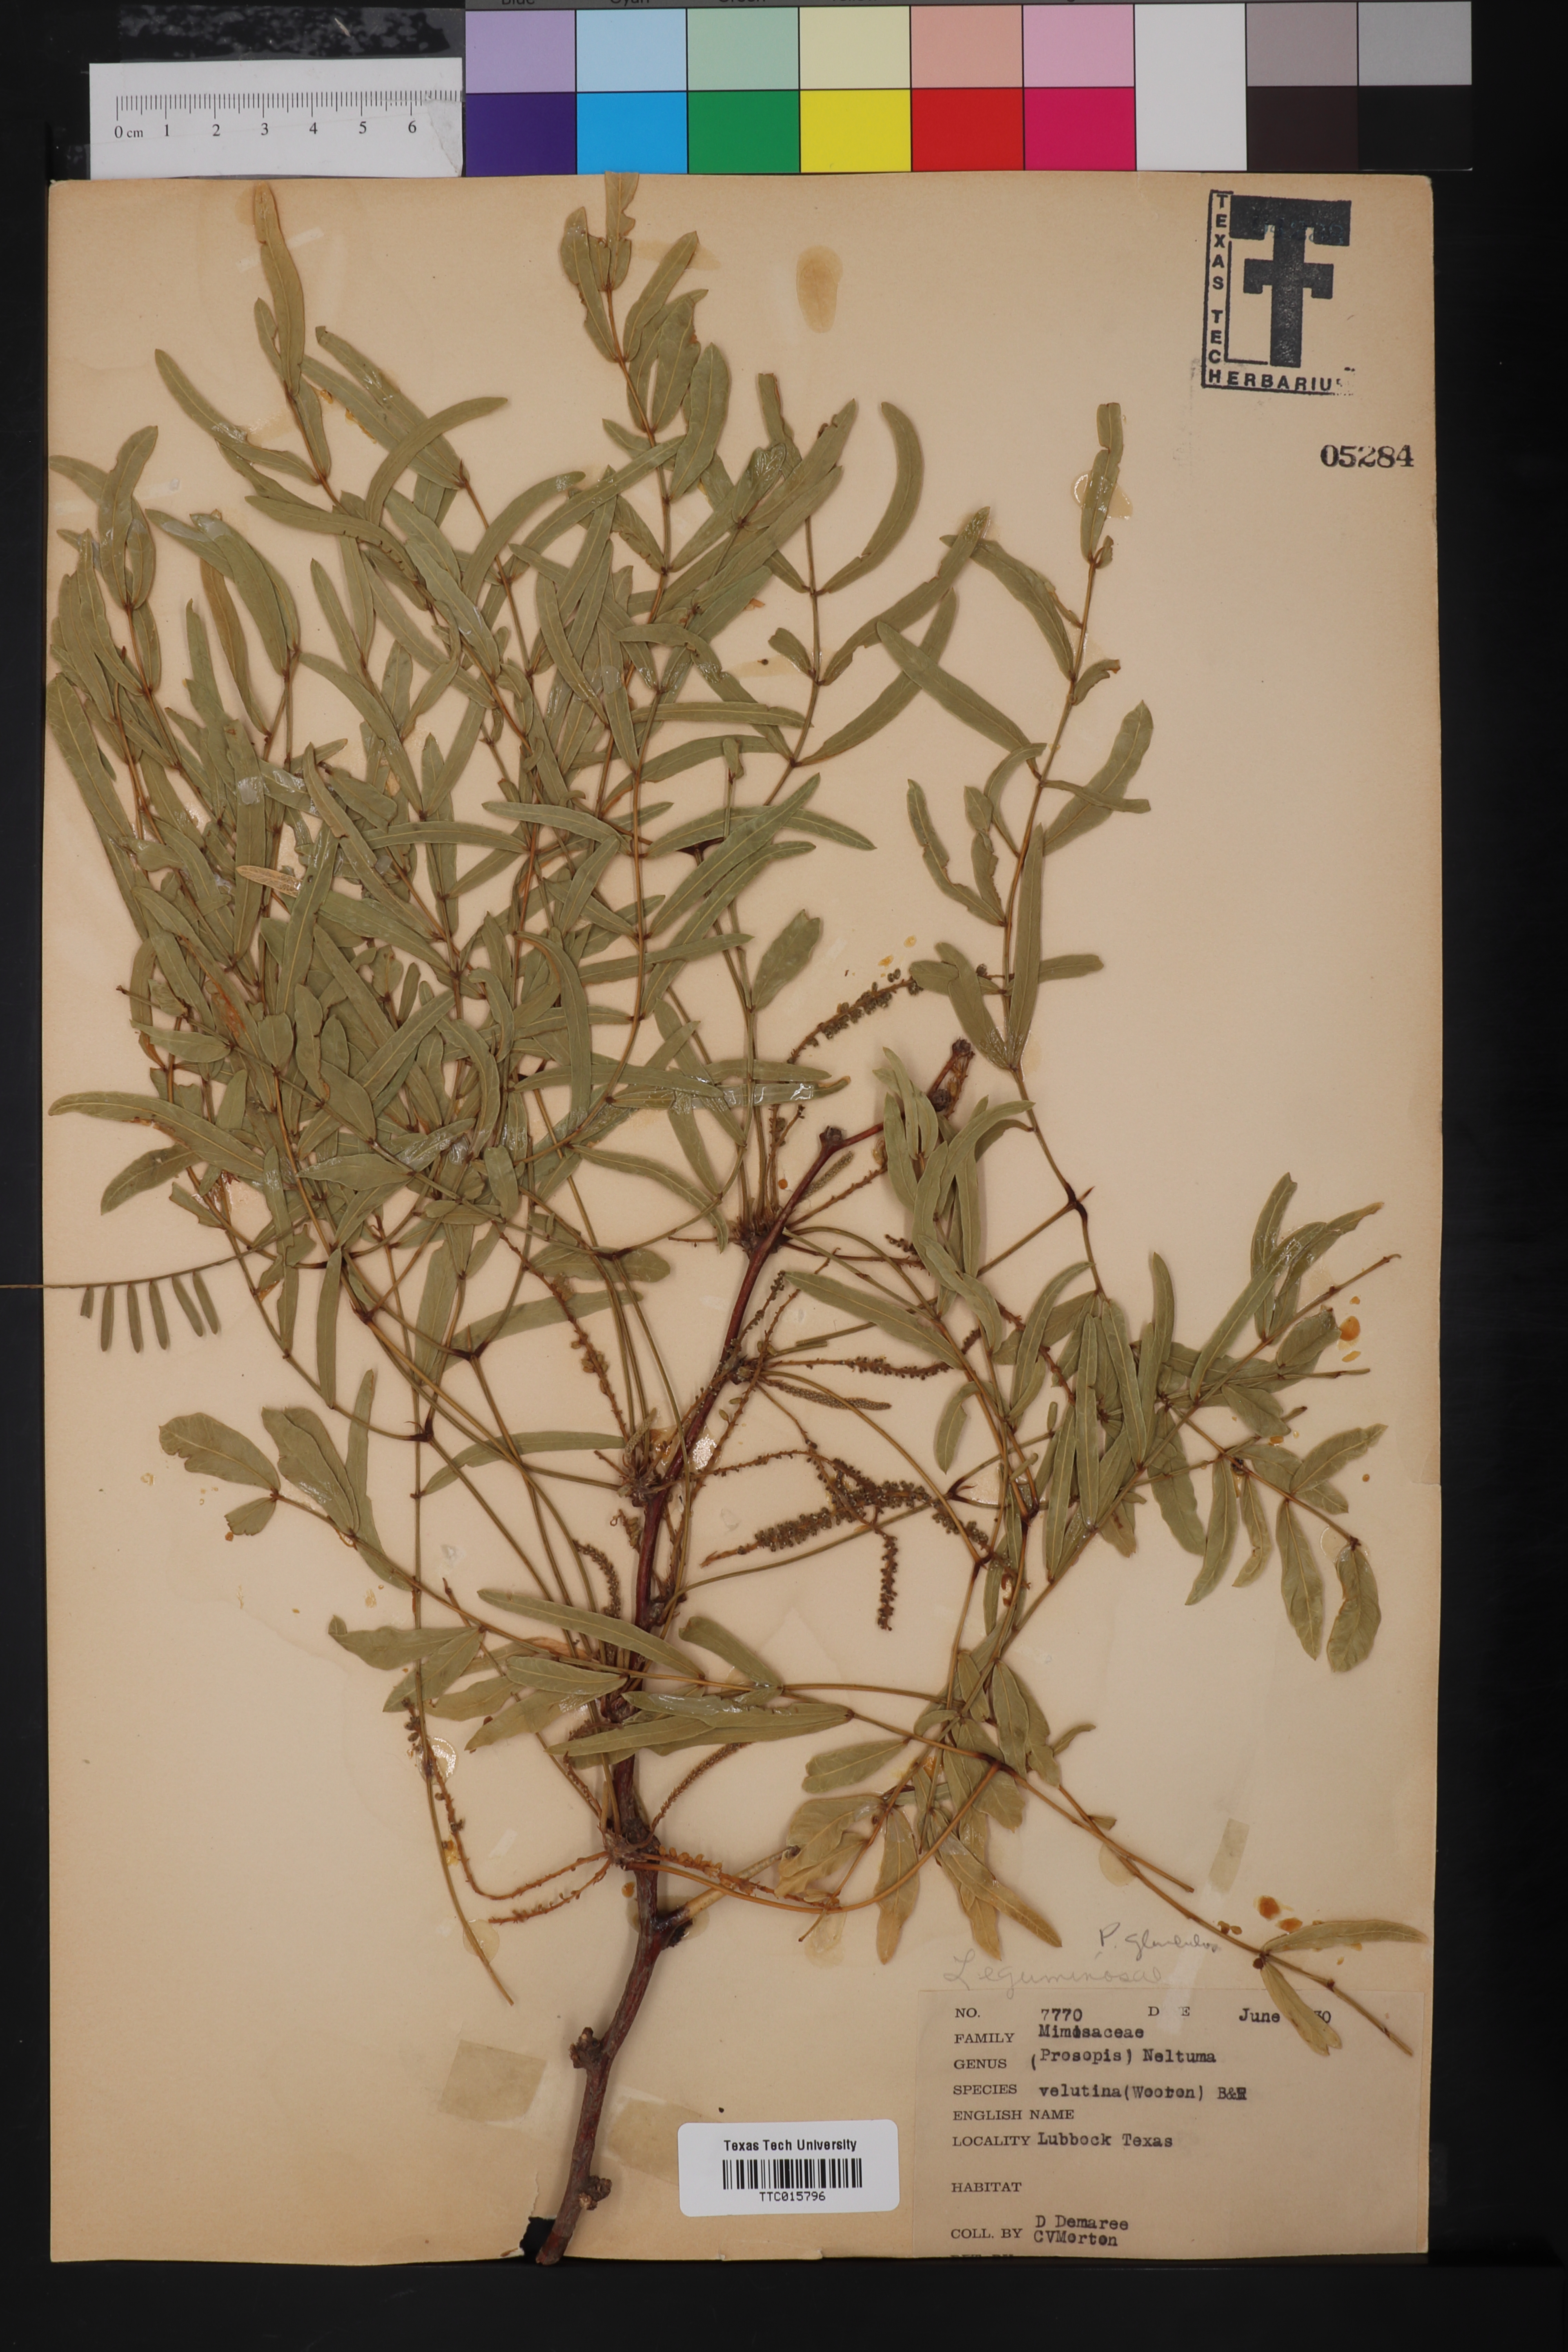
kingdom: Plantae
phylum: Tracheophyta
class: Magnoliopsida
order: Fabales
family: Fabaceae
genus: Prosopis
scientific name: Prosopis glandulosa
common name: Honey mesquite
